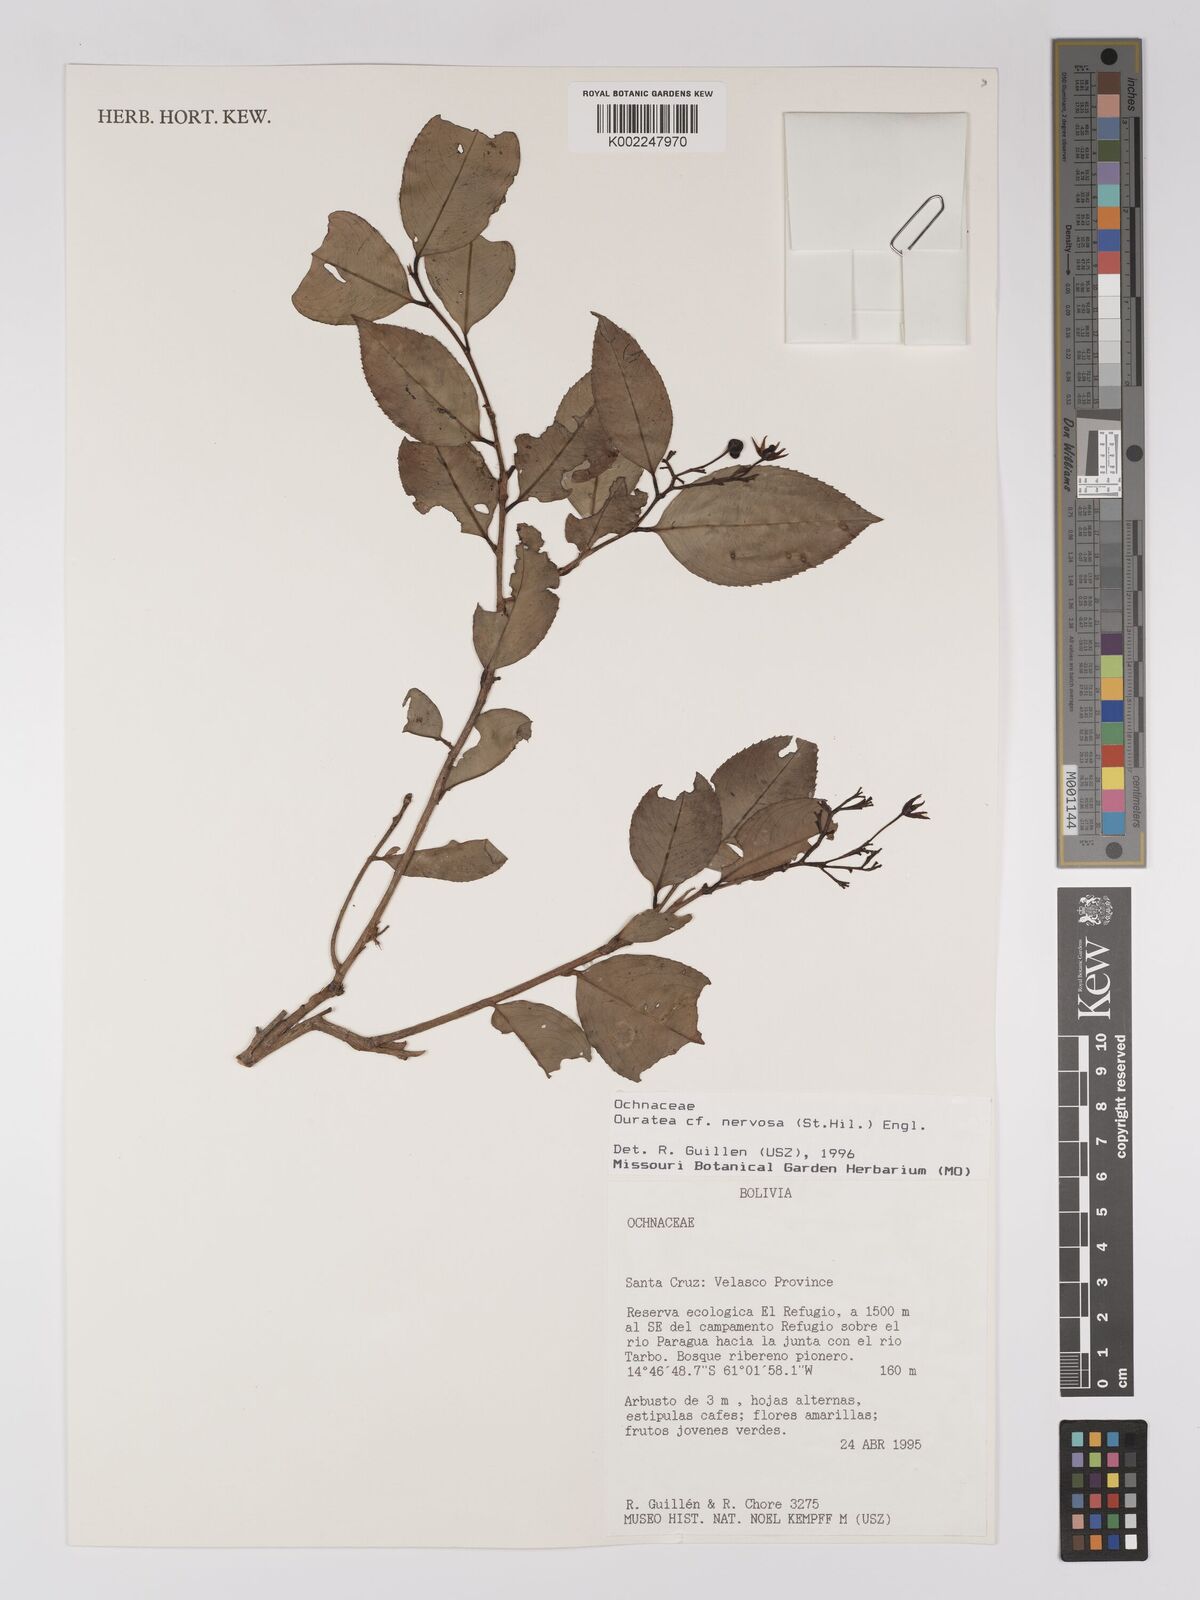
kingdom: Plantae
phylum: Tracheophyta
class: Magnoliopsida
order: Malpighiales
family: Ochnaceae
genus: Ouratea
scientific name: Ouratea nervosa
